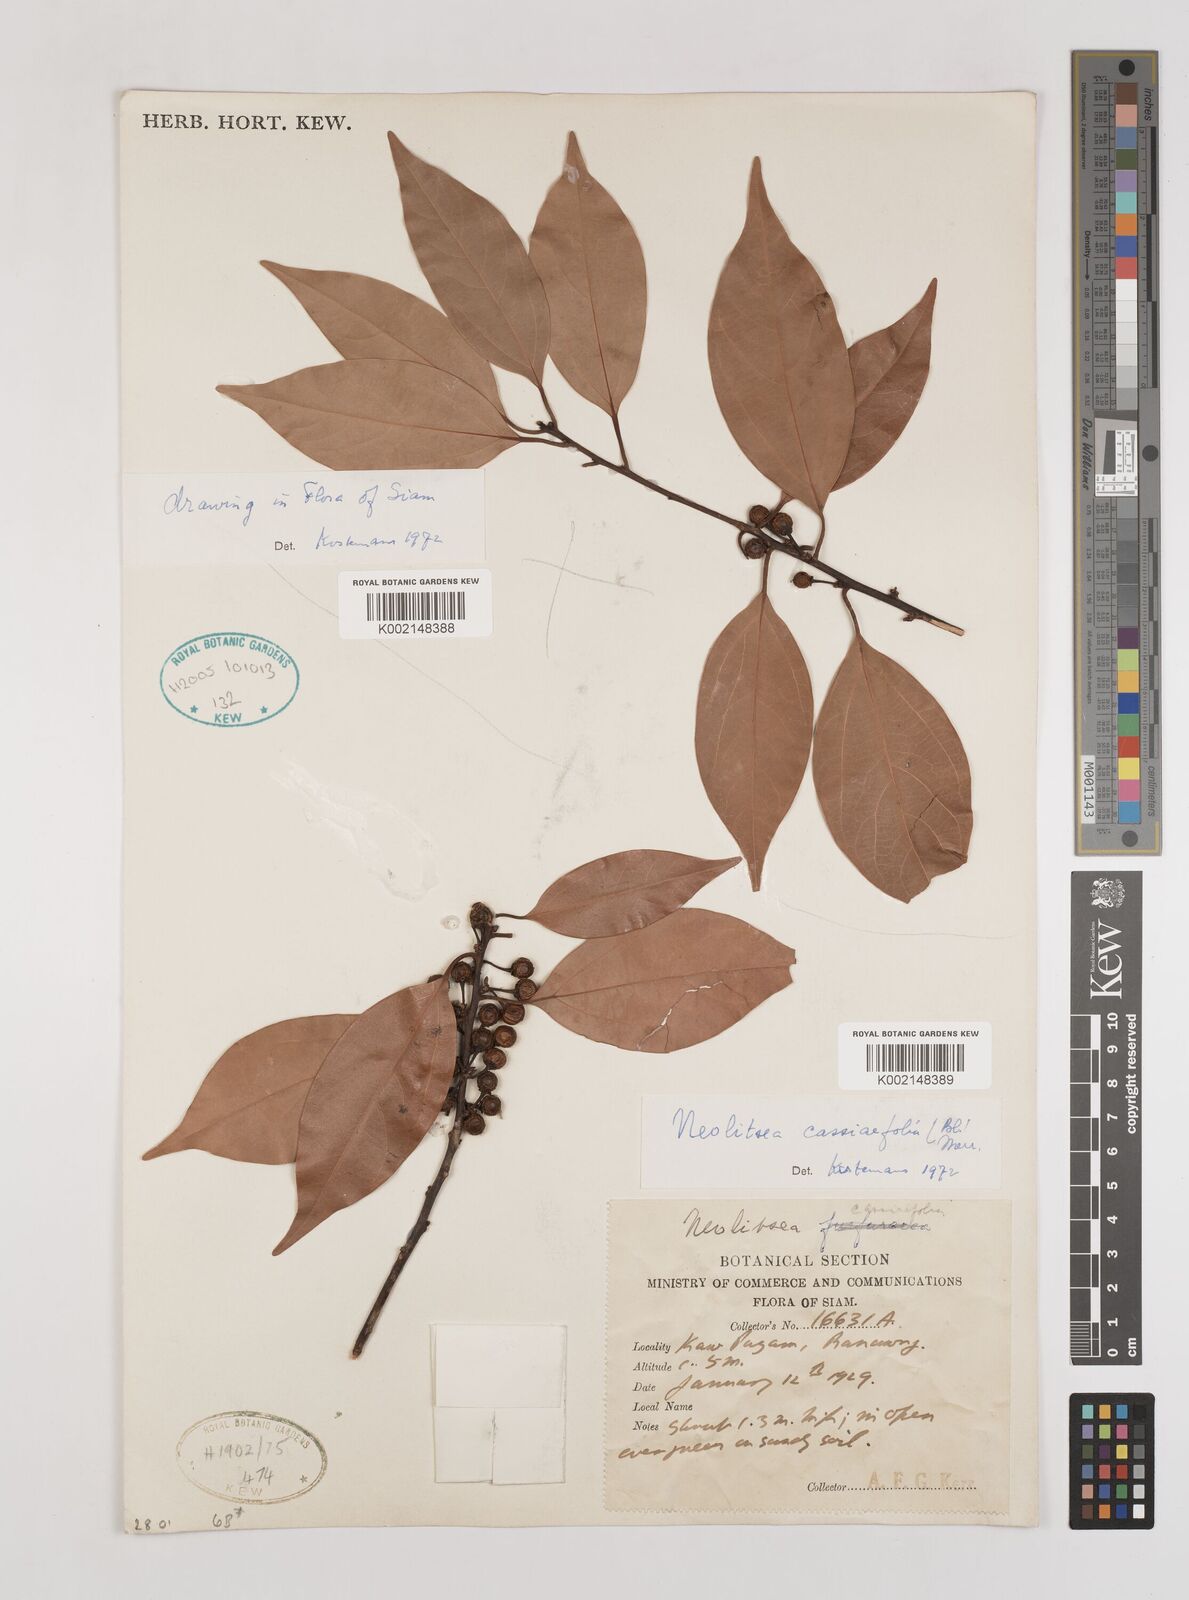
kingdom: Plantae
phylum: Tracheophyta
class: Magnoliopsida
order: Laurales
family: Lauraceae
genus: Neolitsea
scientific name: Neolitsea cassiifolia
